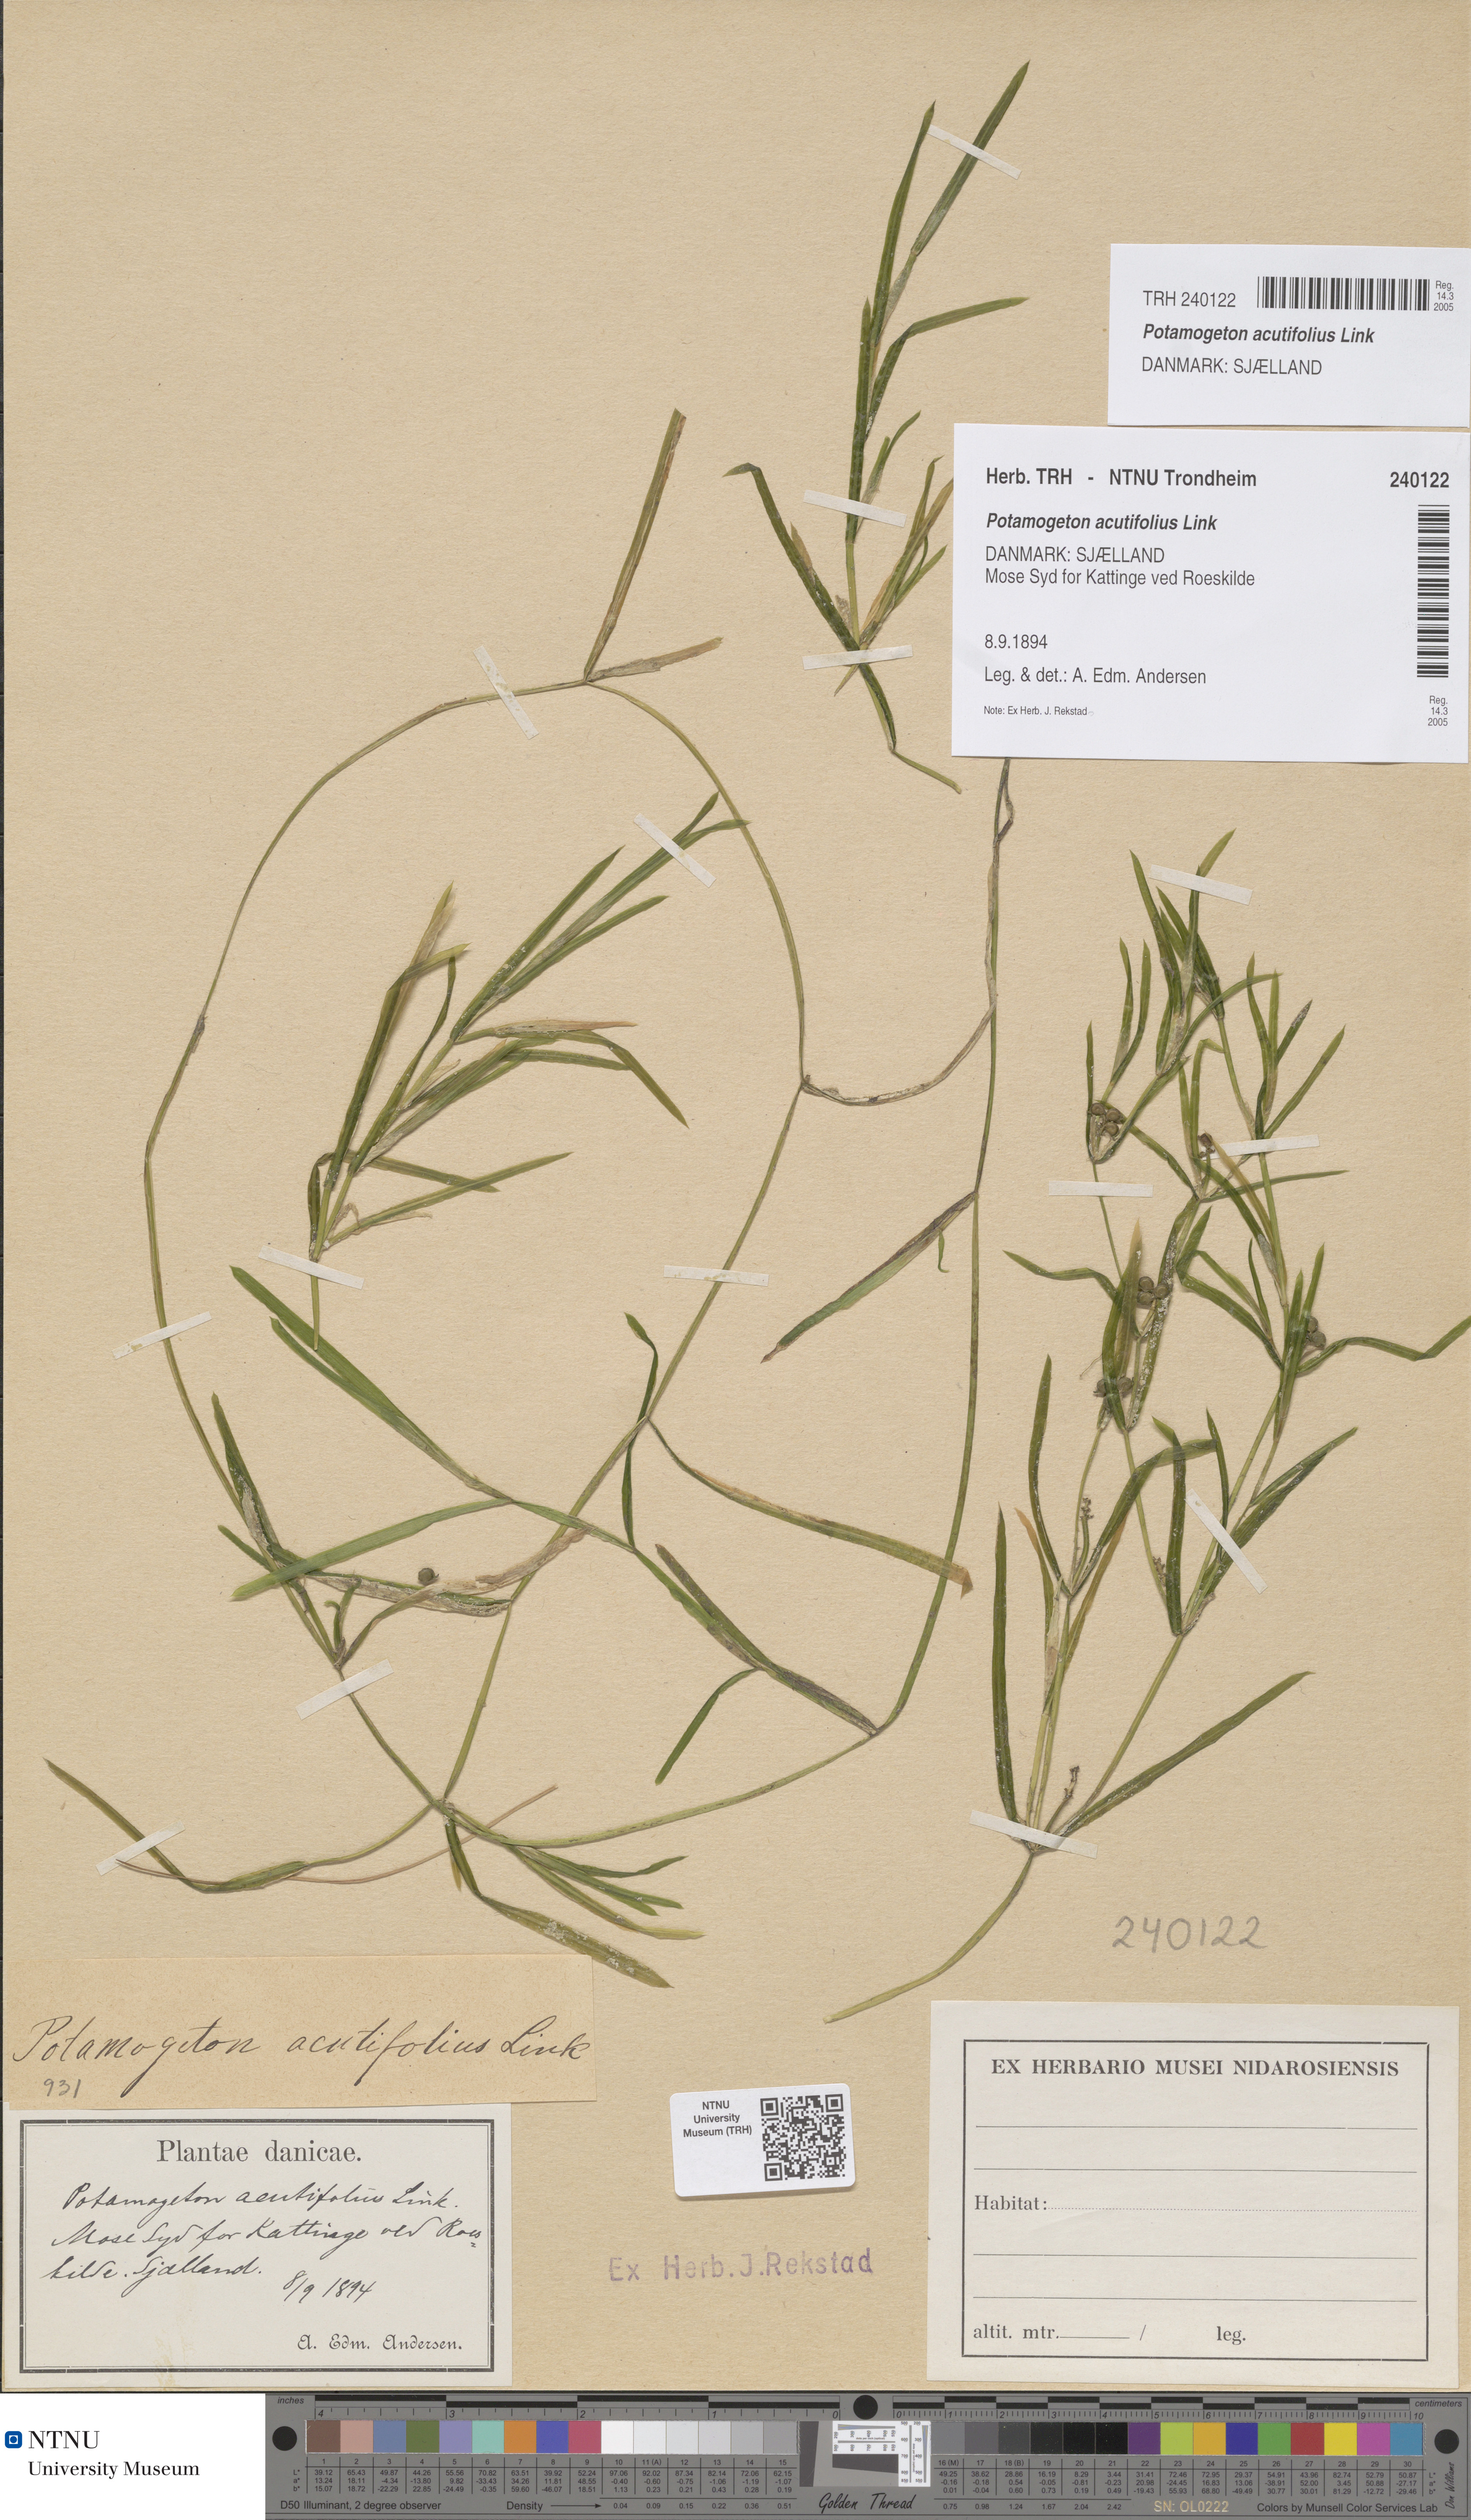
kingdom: Plantae
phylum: Tracheophyta
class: Liliopsida
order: Alismatales
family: Potamogetonaceae
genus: Potamogeton
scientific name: Potamogeton acutifolius
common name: Sharp-leaved pondweed
